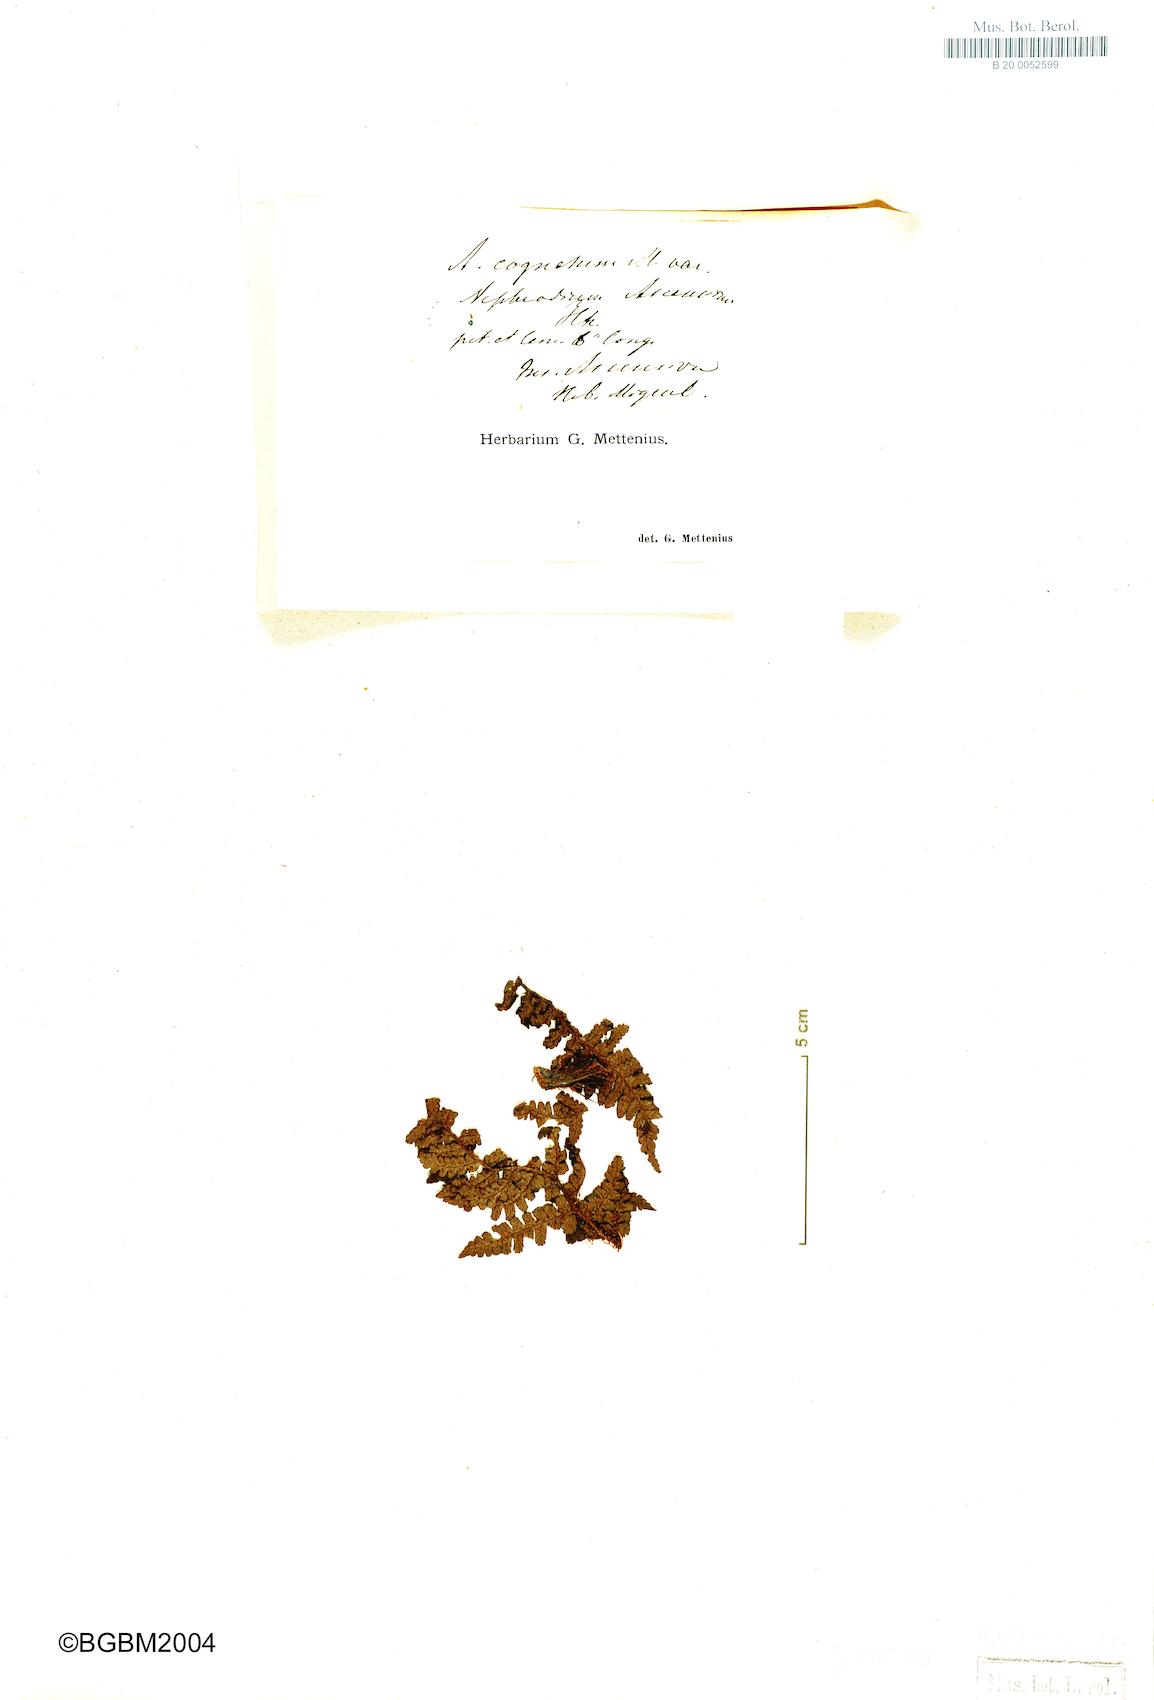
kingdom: Plantae
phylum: Tracheophyta
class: Polypodiopsida
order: Polypodiales
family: Dryopteridaceae
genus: Dryopteris
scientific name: Dryopteris ascensionis
